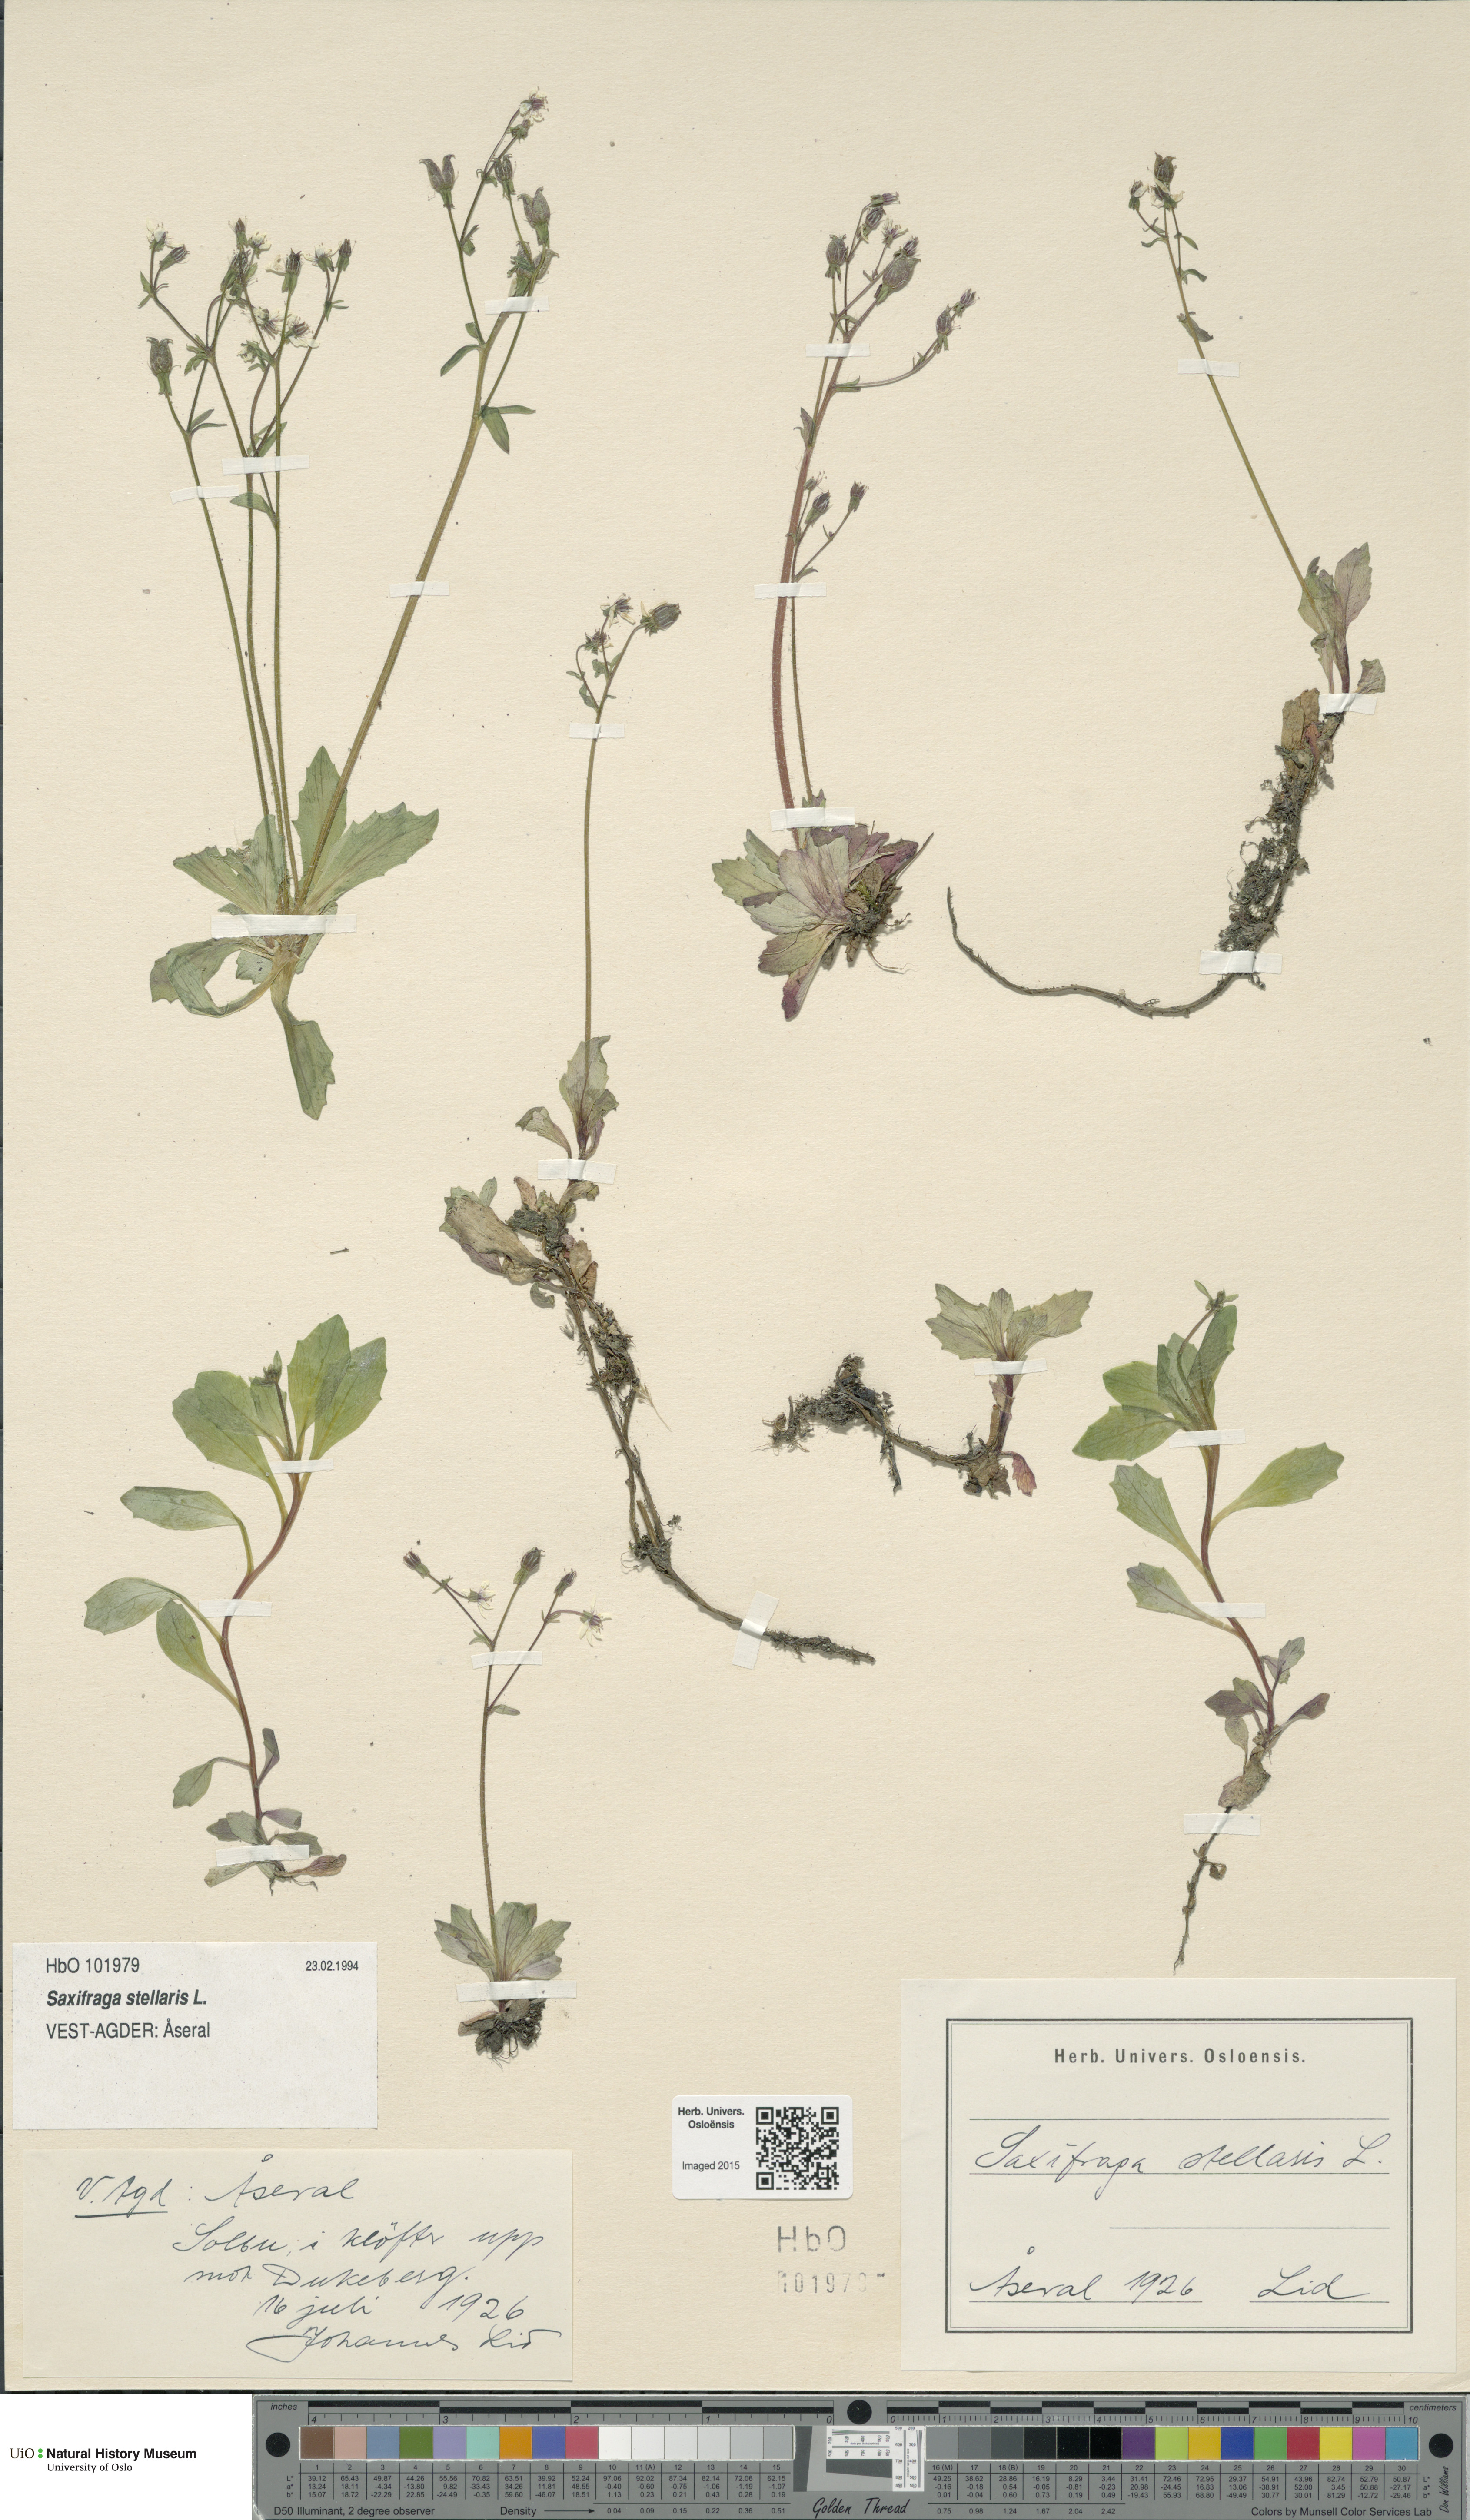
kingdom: Plantae
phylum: Tracheophyta
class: Magnoliopsida
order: Saxifragales
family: Saxifragaceae
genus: Micranthes
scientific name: Micranthes stellaris
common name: Starry saxifrage
